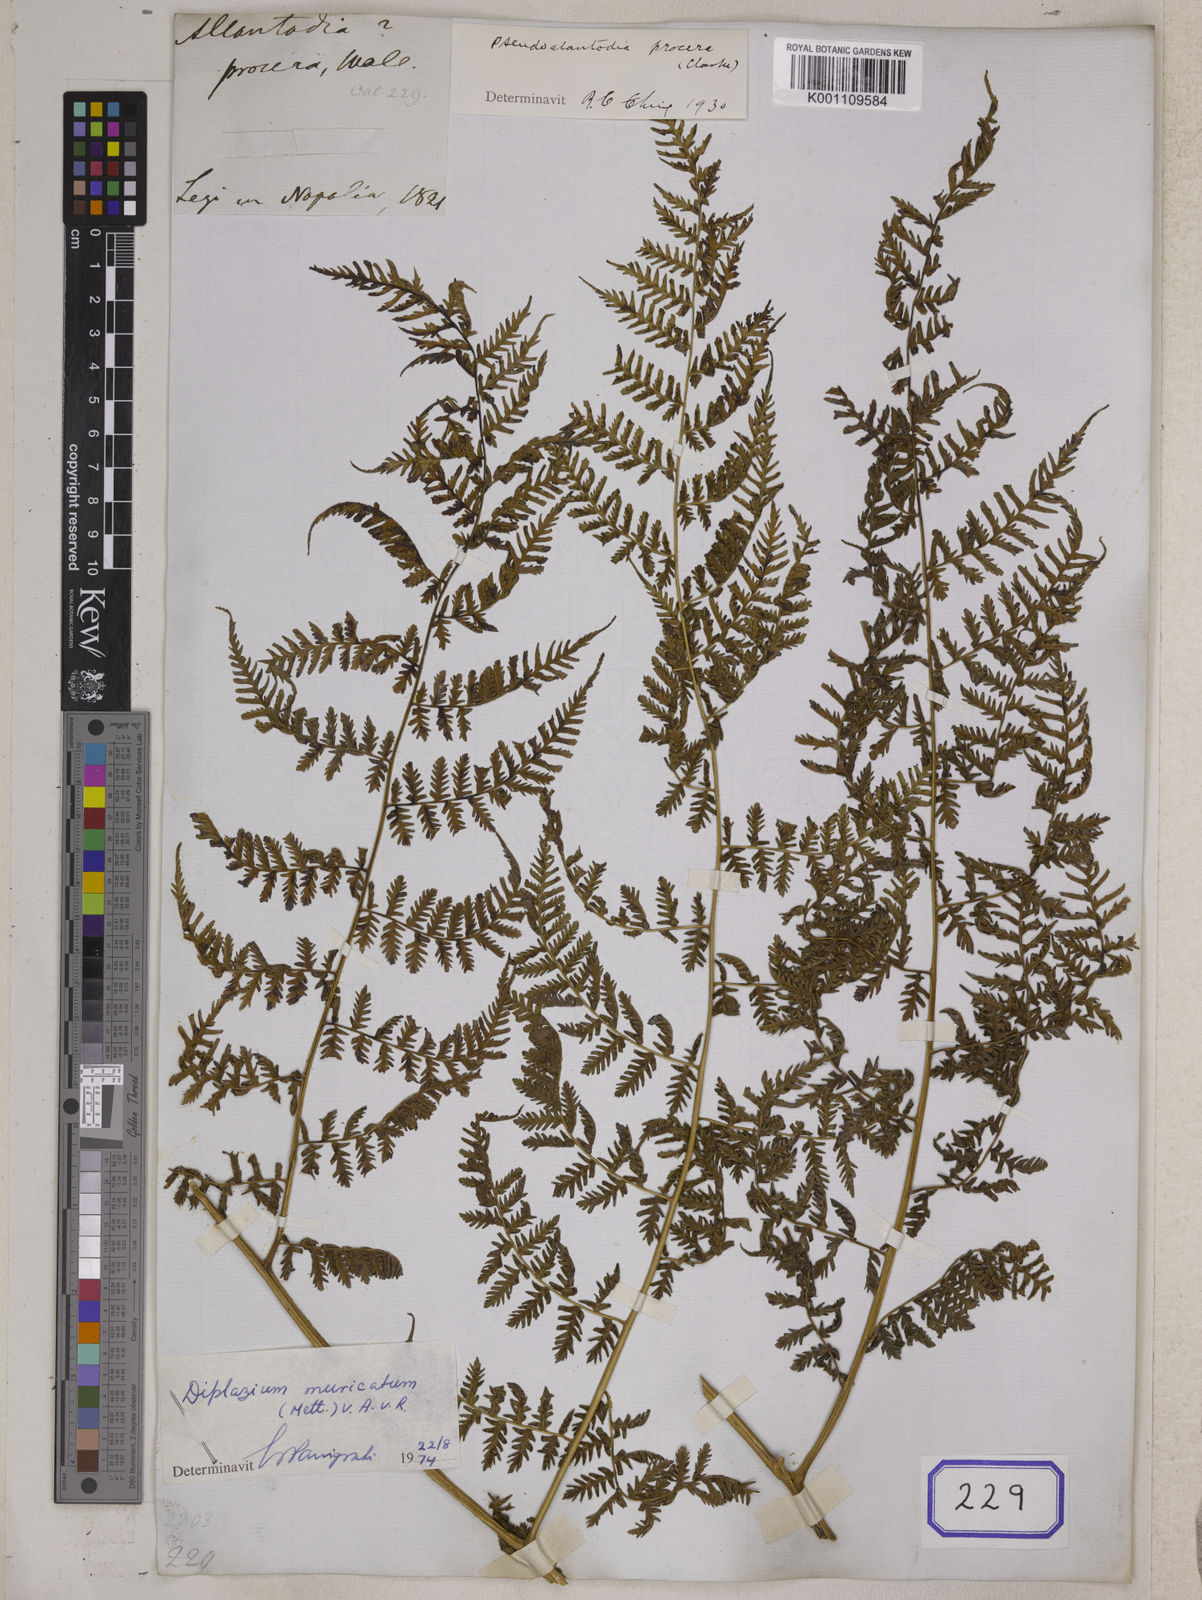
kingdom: Plantae
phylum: Tracheophyta
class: Polypodiopsida
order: Polypodiales
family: Athyriaceae
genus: Diplazium
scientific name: Diplazium pseudosetigerum
